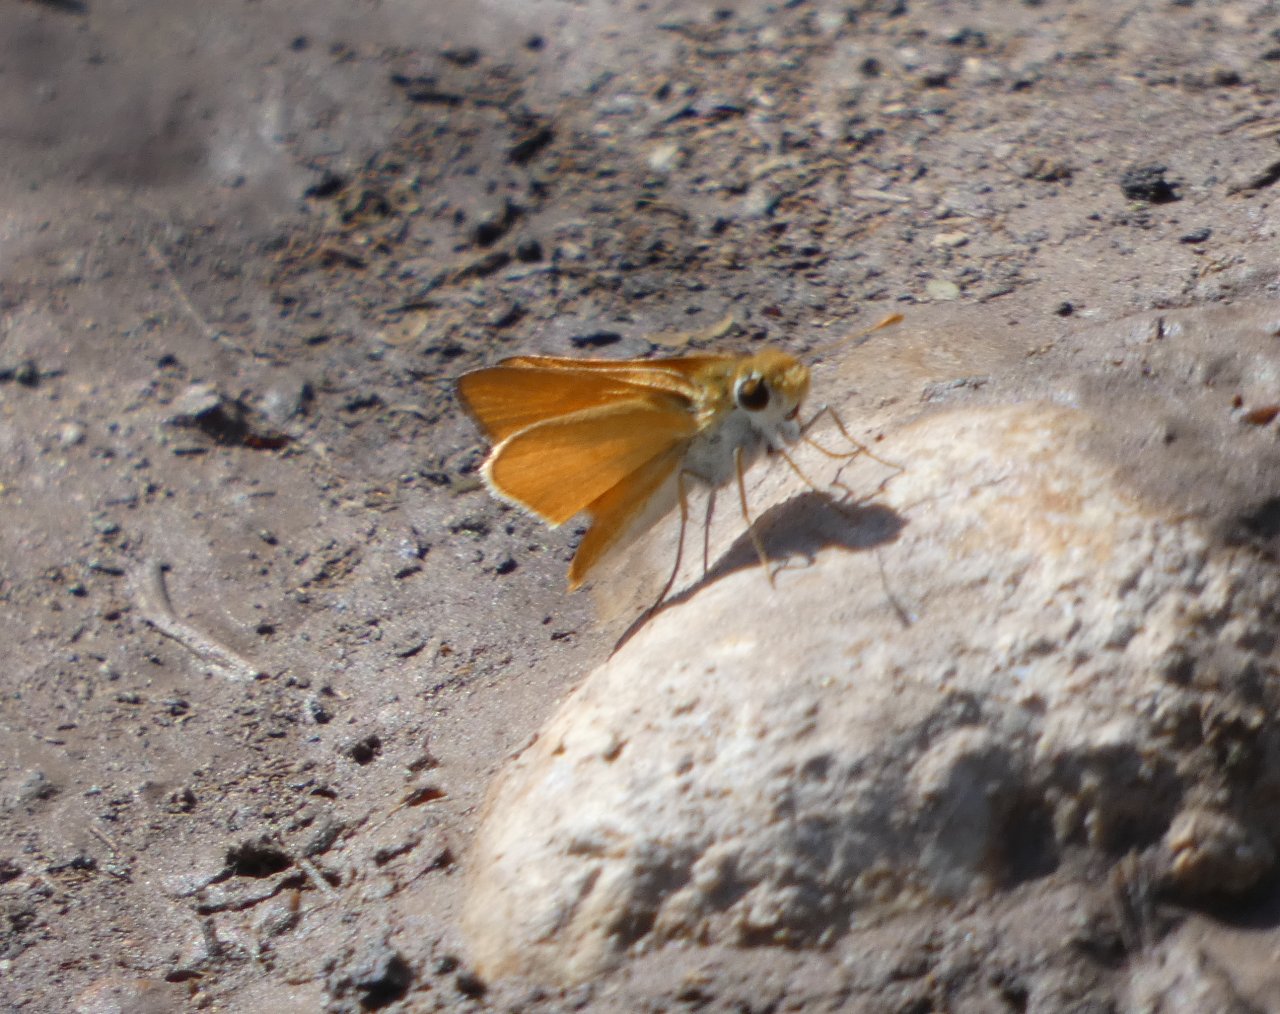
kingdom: Animalia
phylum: Arthropoda
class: Insecta
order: Lepidoptera
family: Hesperiidae
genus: Copaeodes
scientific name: Copaeodes aurantiaca
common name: Orange Skipperling
